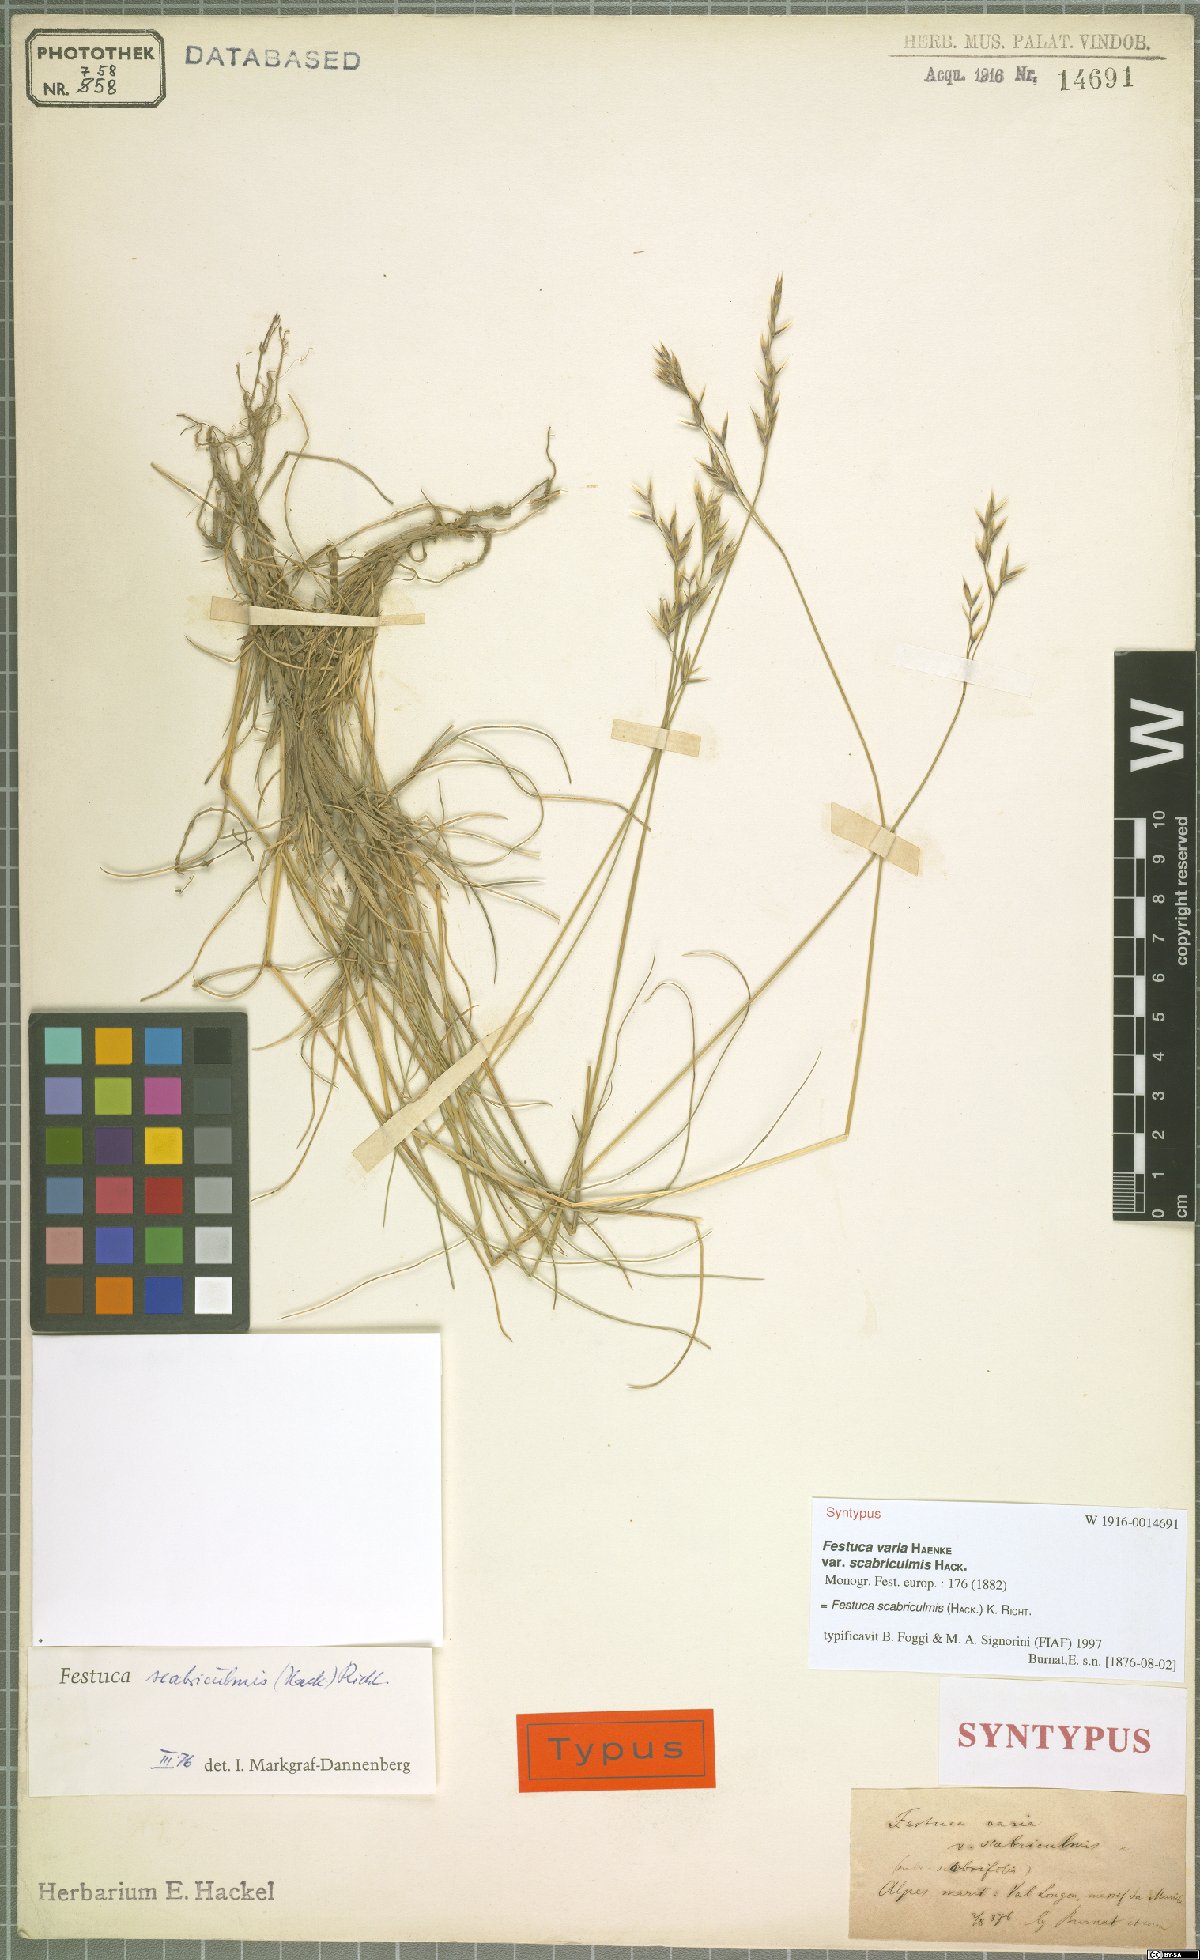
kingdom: Plantae
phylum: Tracheophyta
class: Liliopsida
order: Poales
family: Poaceae
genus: Festuca
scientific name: Festuca scabriculmis
